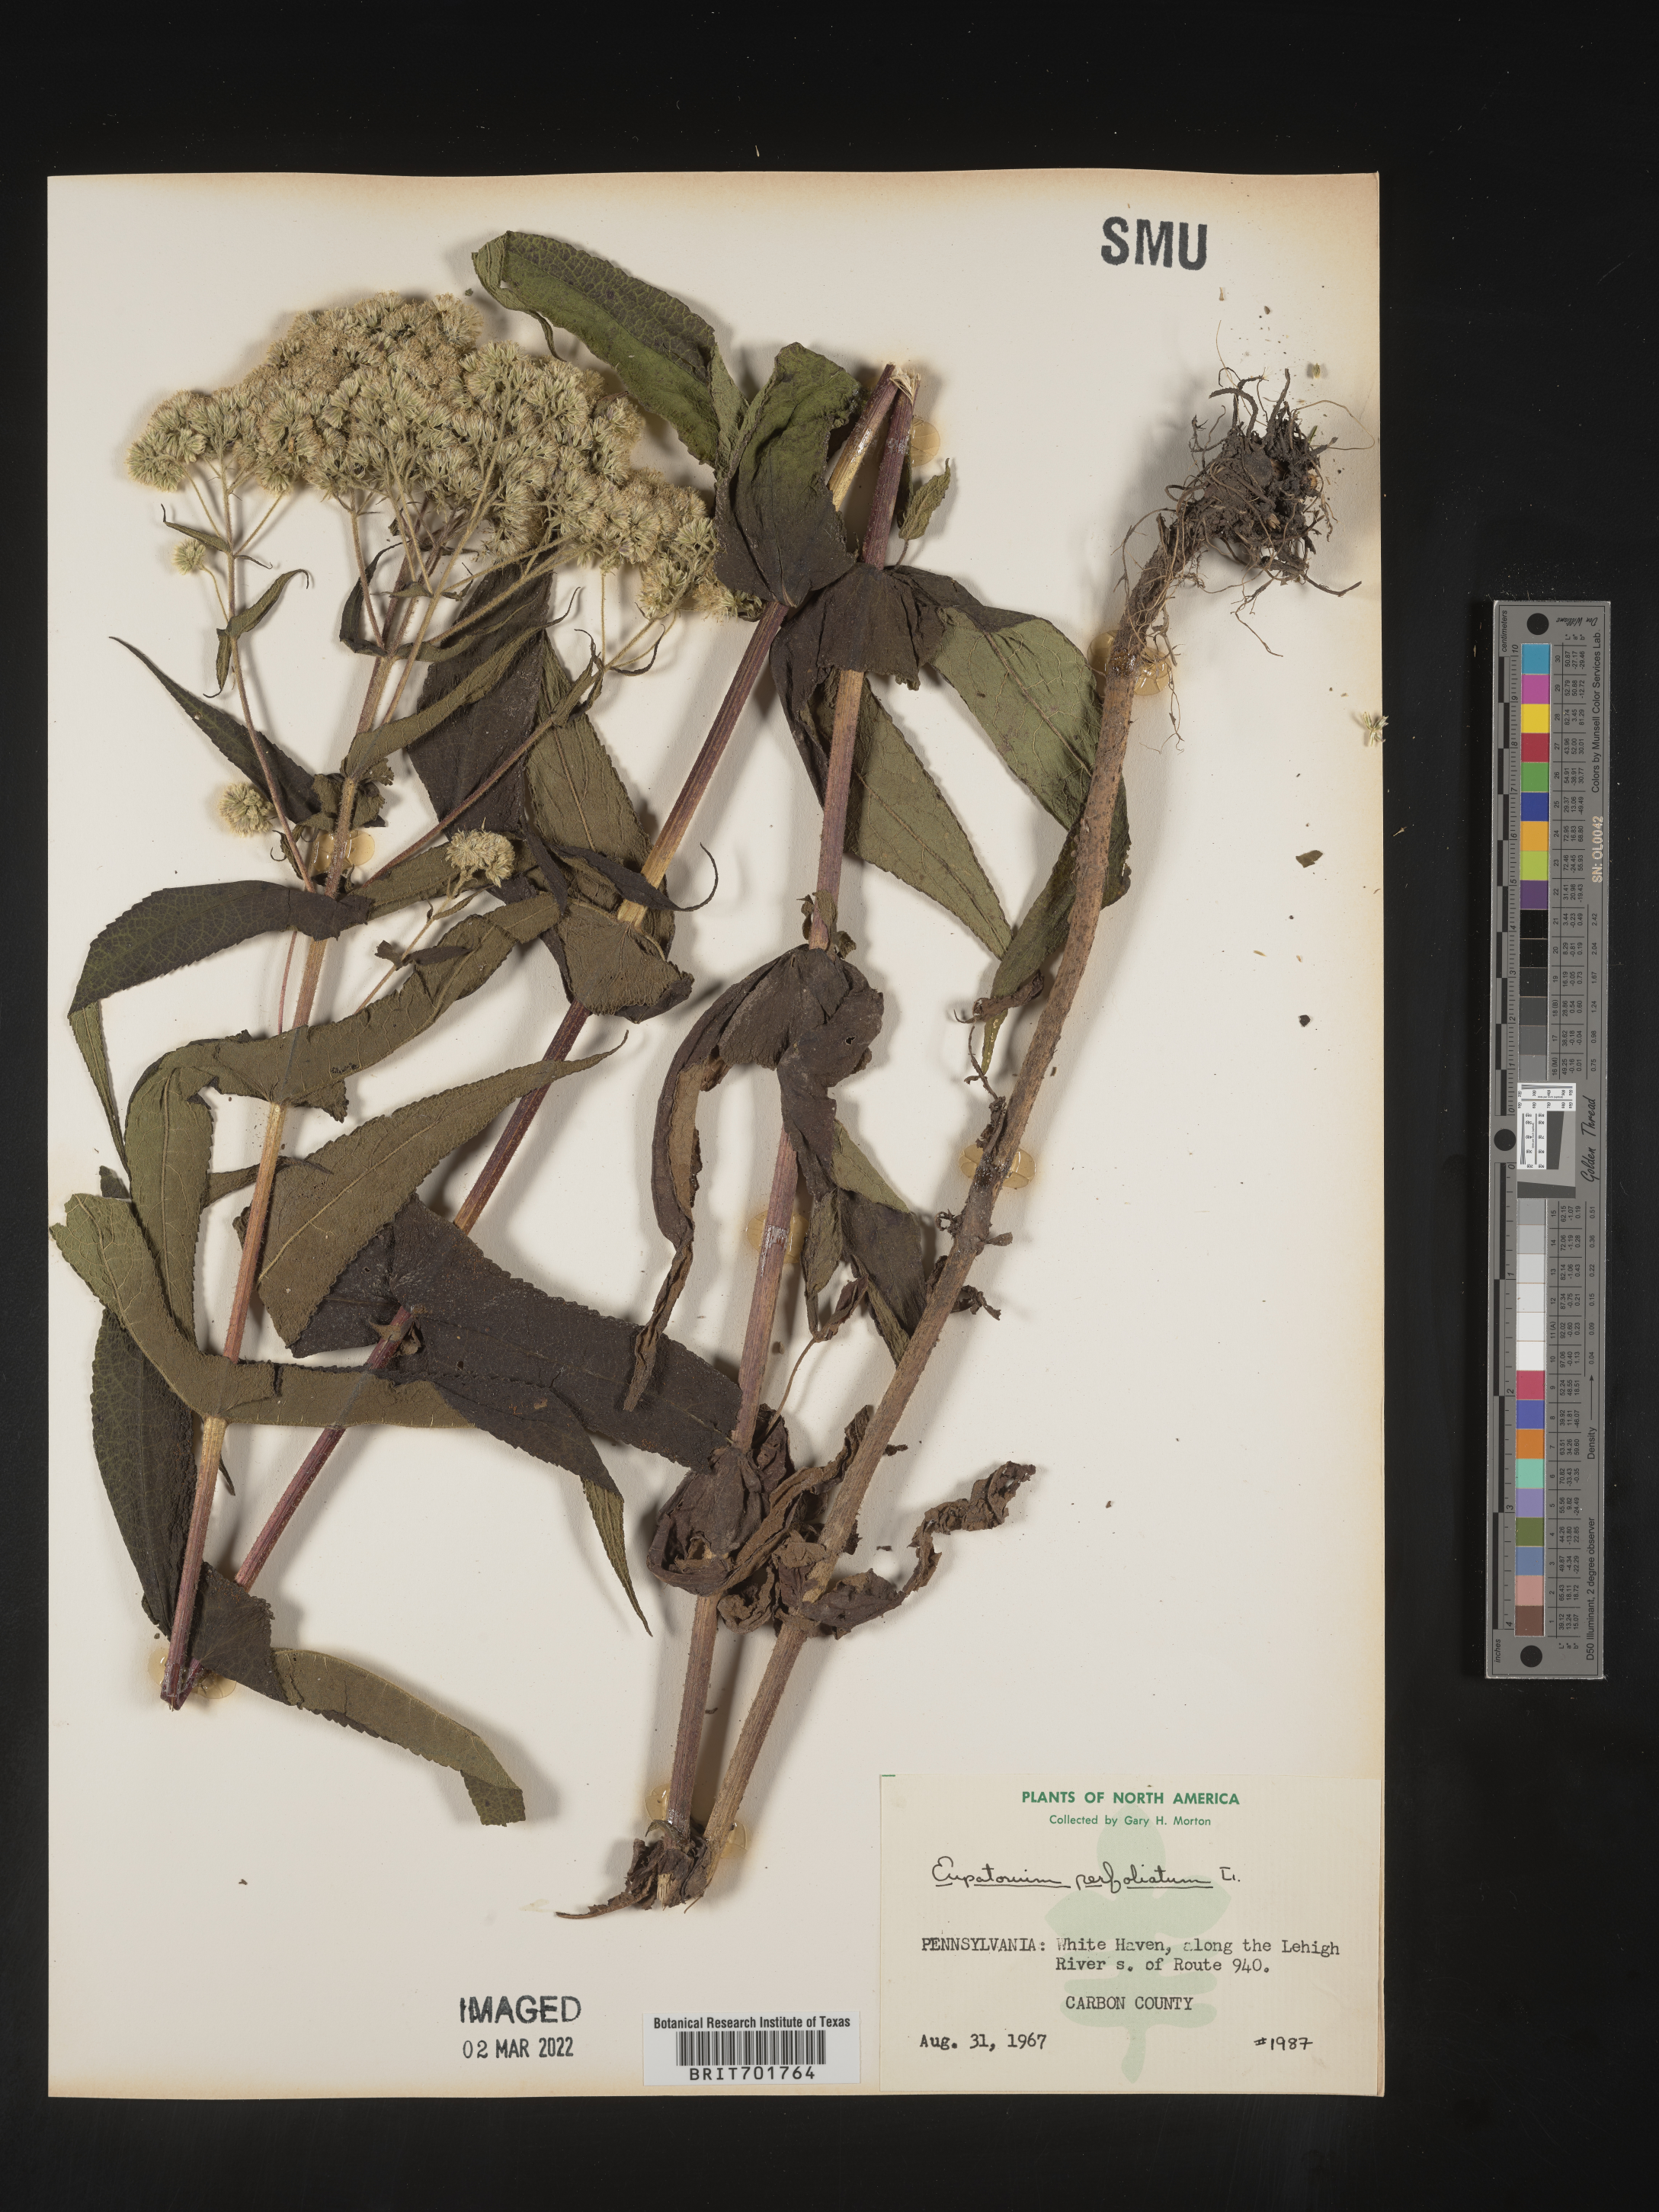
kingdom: Plantae
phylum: Tracheophyta
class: Magnoliopsida
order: Asterales
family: Asteraceae
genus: Eupatorium
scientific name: Eupatorium perfoliatum
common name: Boneset
